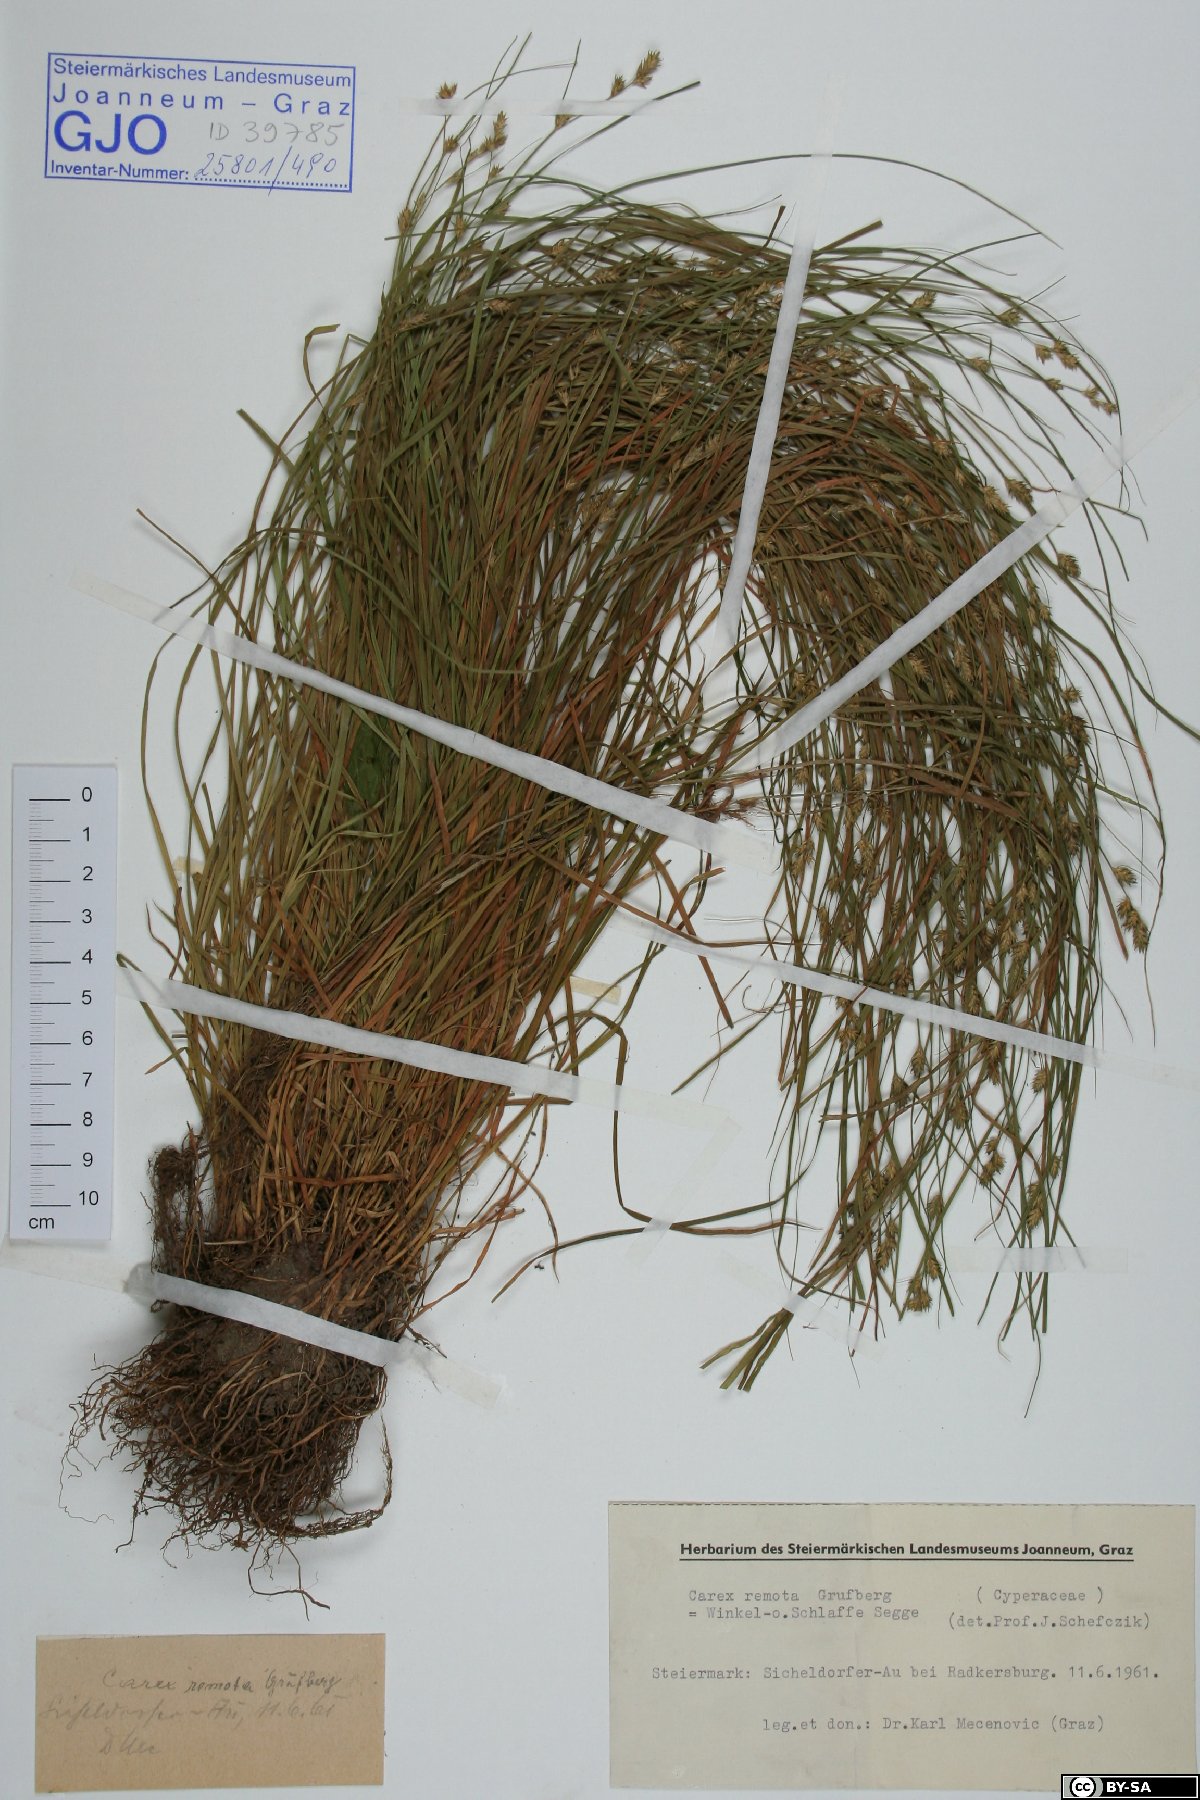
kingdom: Plantae
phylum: Tracheophyta
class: Liliopsida
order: Poales
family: Cyperaceae
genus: Carex
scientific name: Carex remota
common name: Remote sedge
